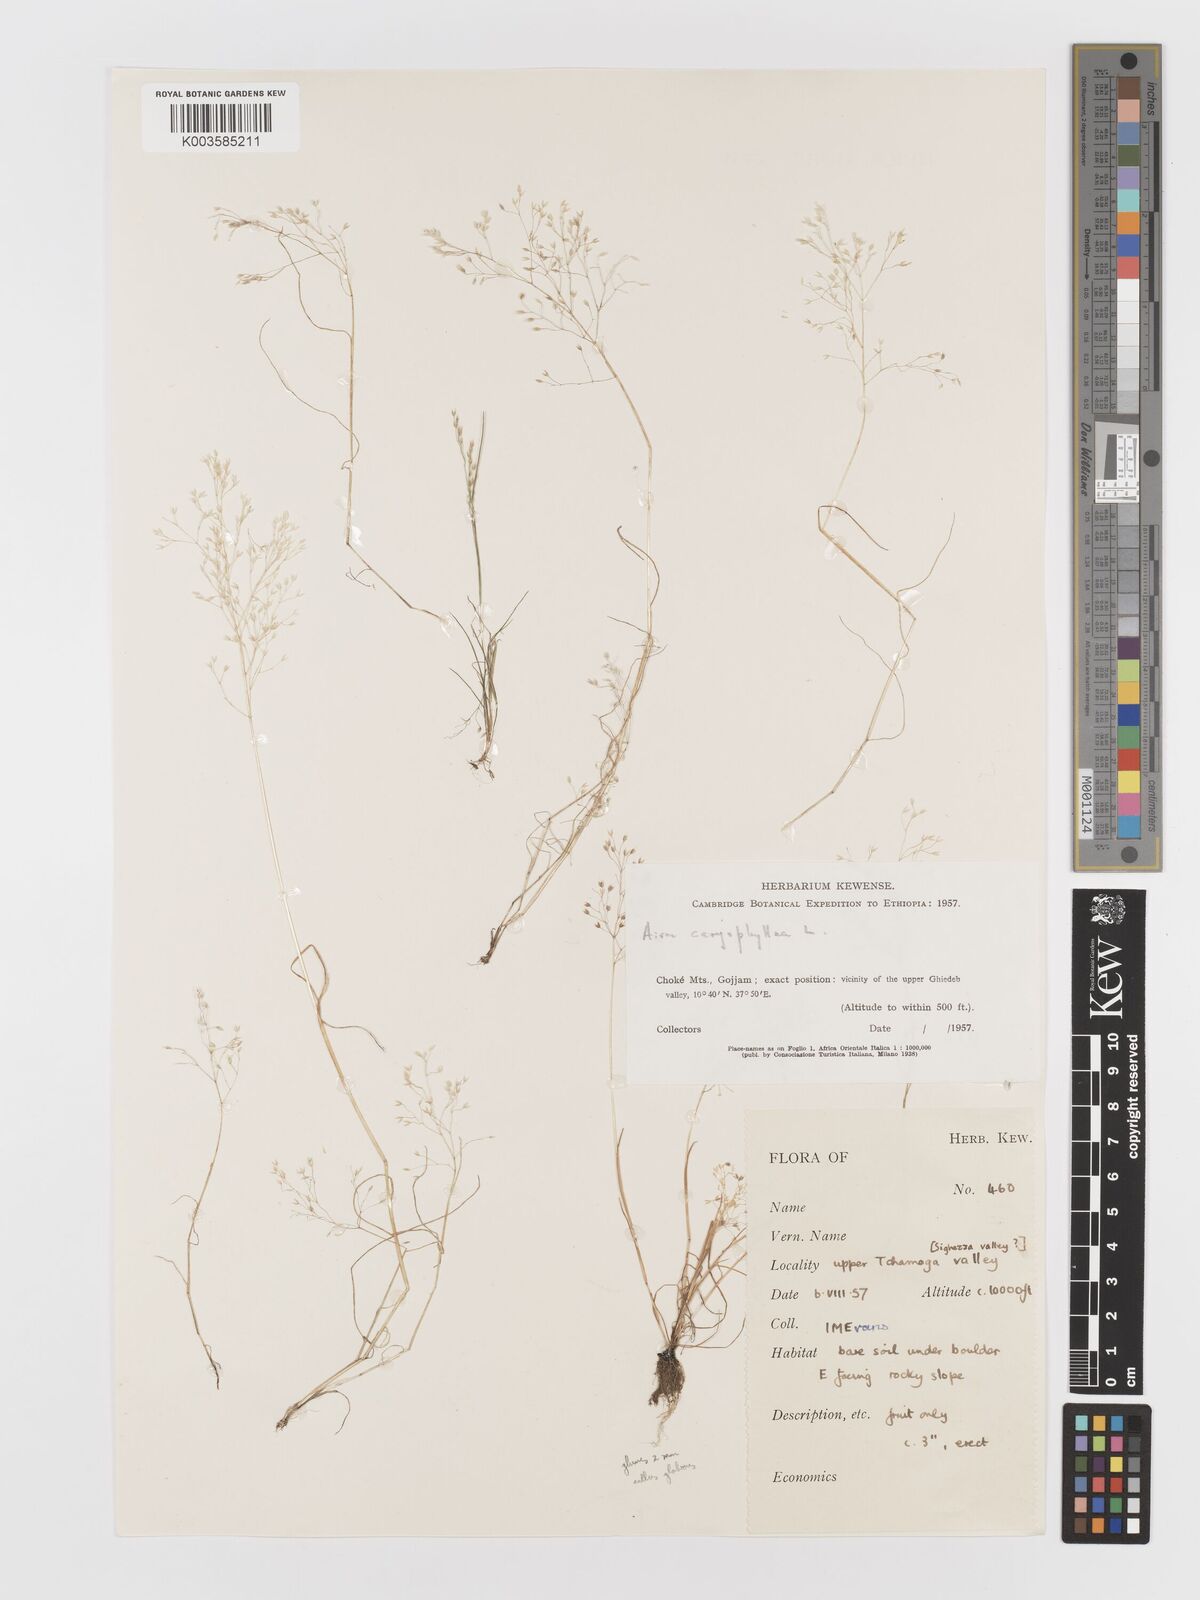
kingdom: Plantae
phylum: Tracheophyta
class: Liliopsida
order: Poales
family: Poaceae
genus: Aira
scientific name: Aira caryophyllea
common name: Silver hairgrass
